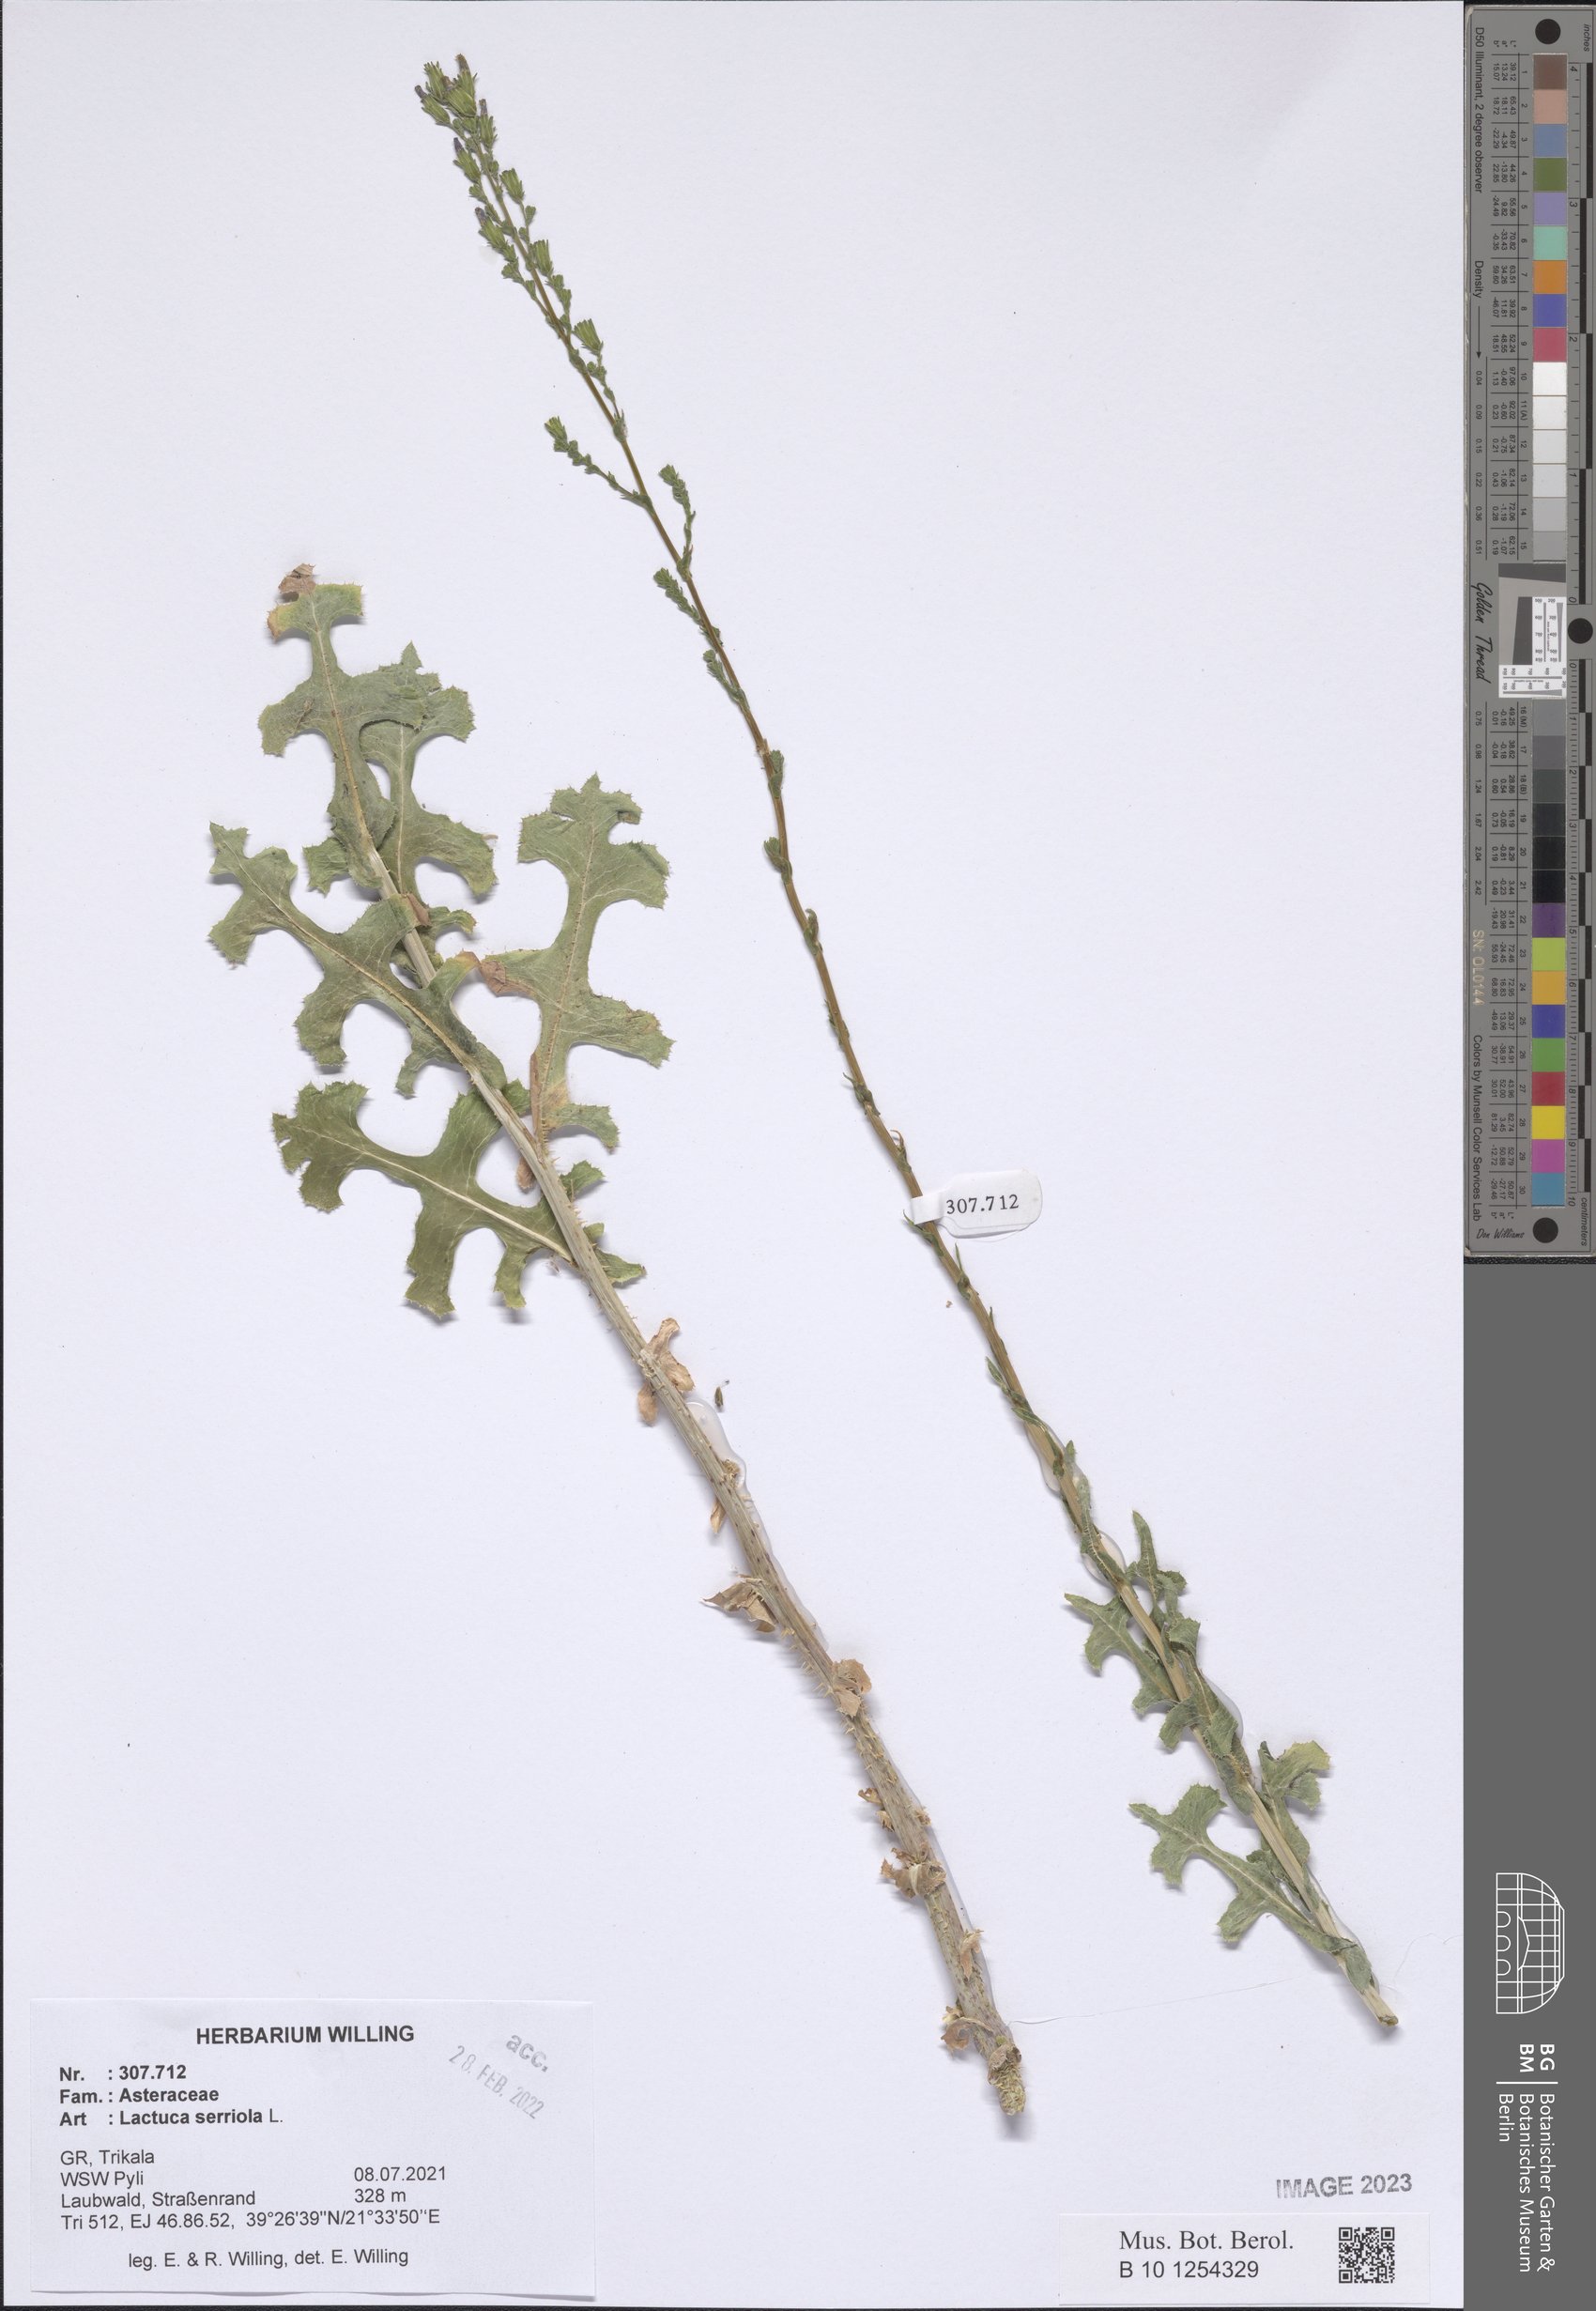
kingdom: Plantae
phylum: Tracheophyta
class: Magnoliopsida
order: Asterales
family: Asteraceae
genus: Lactuca
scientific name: Lactuca serriola
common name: Prickly lettuce
